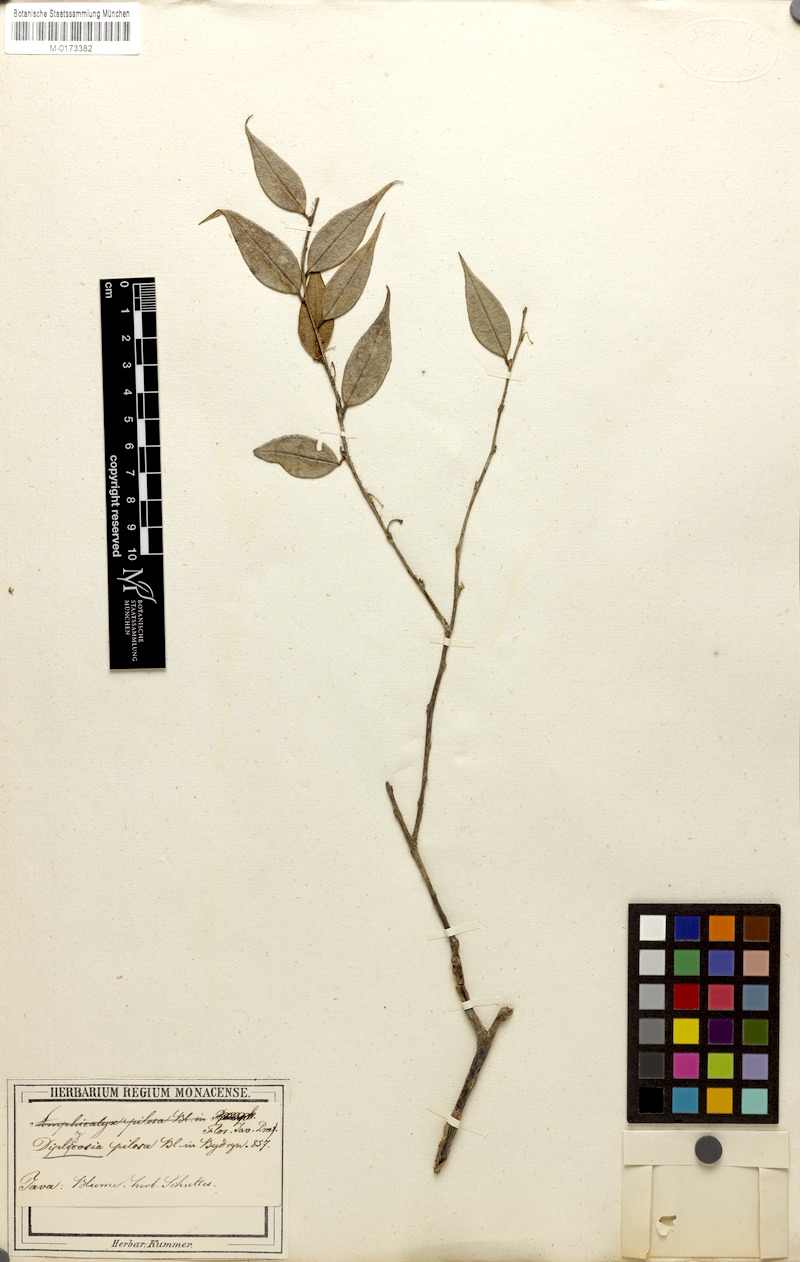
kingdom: Plantae
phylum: Tracheophyta
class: Magnoliopsida
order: Ericales
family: Ericaceae
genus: Gaultheria
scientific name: Gaultheria pilosa
